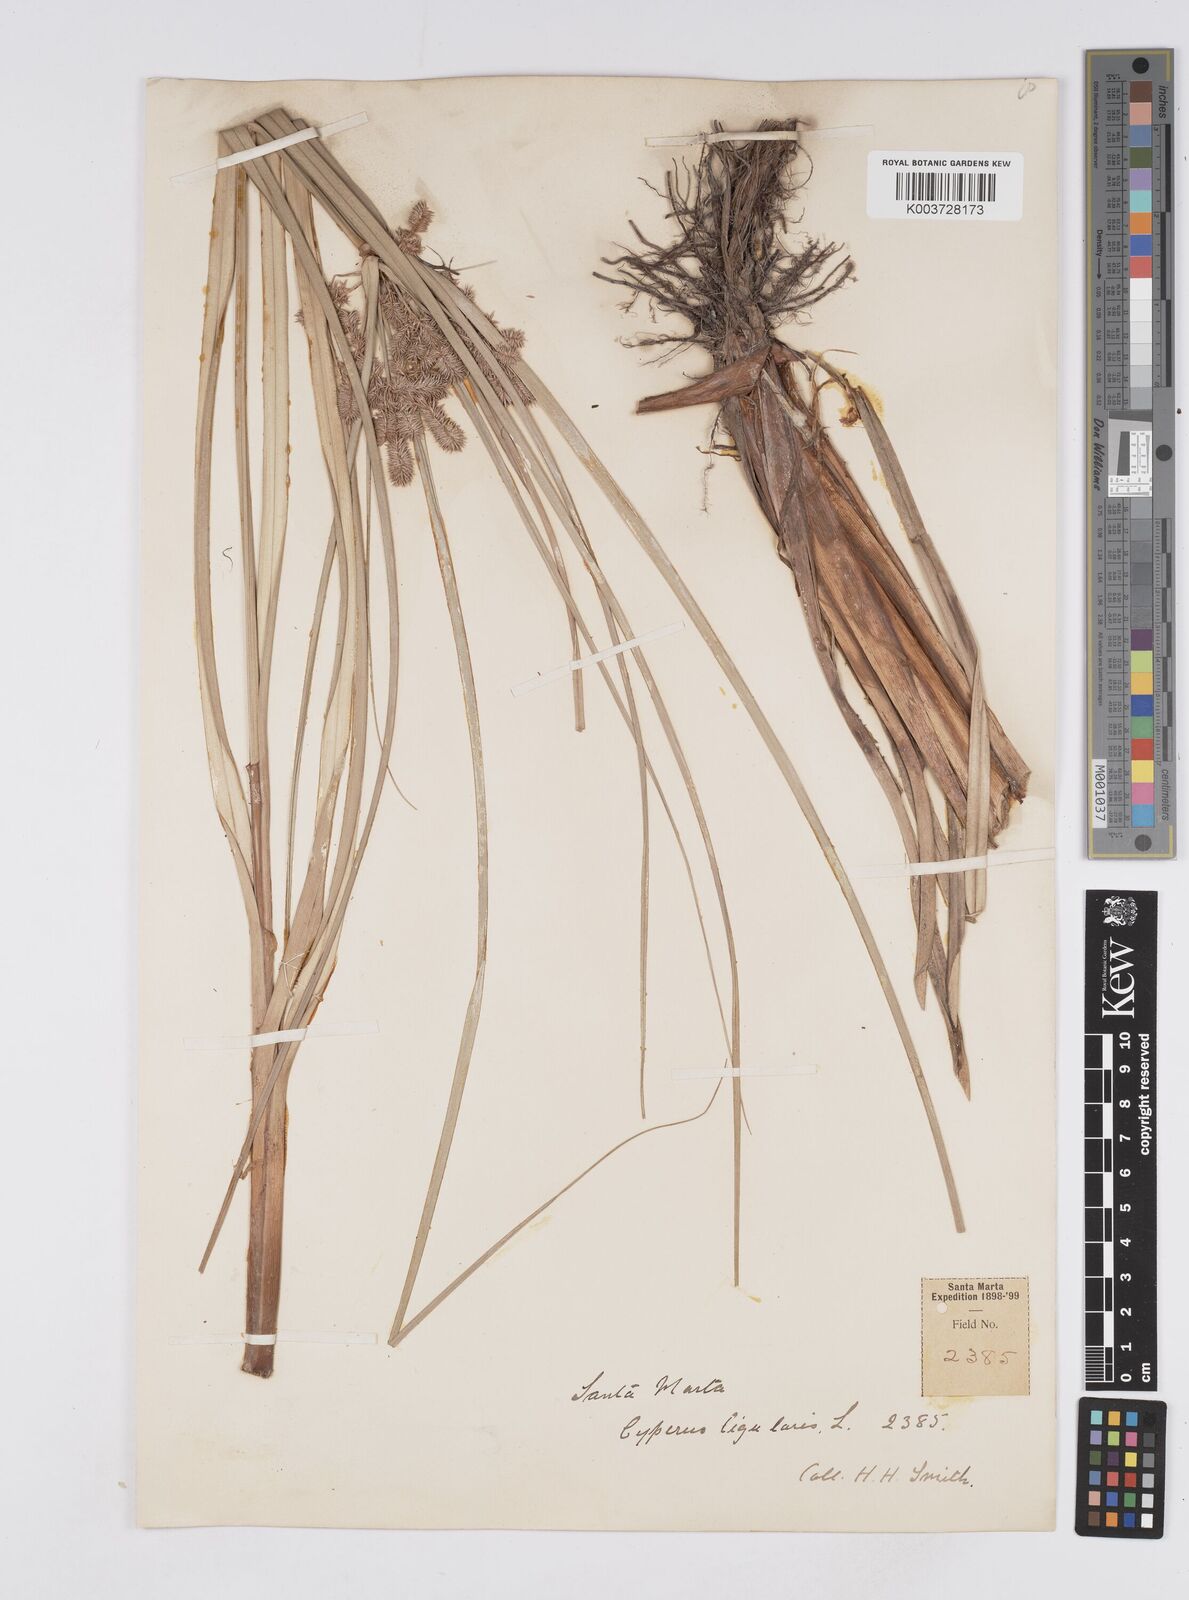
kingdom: Plantae
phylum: Tracheophyta
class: Liliopsida
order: Poales
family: Cyperaceae
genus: Cyperus
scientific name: Cyperus ligularis
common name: Swamp flat sedge
